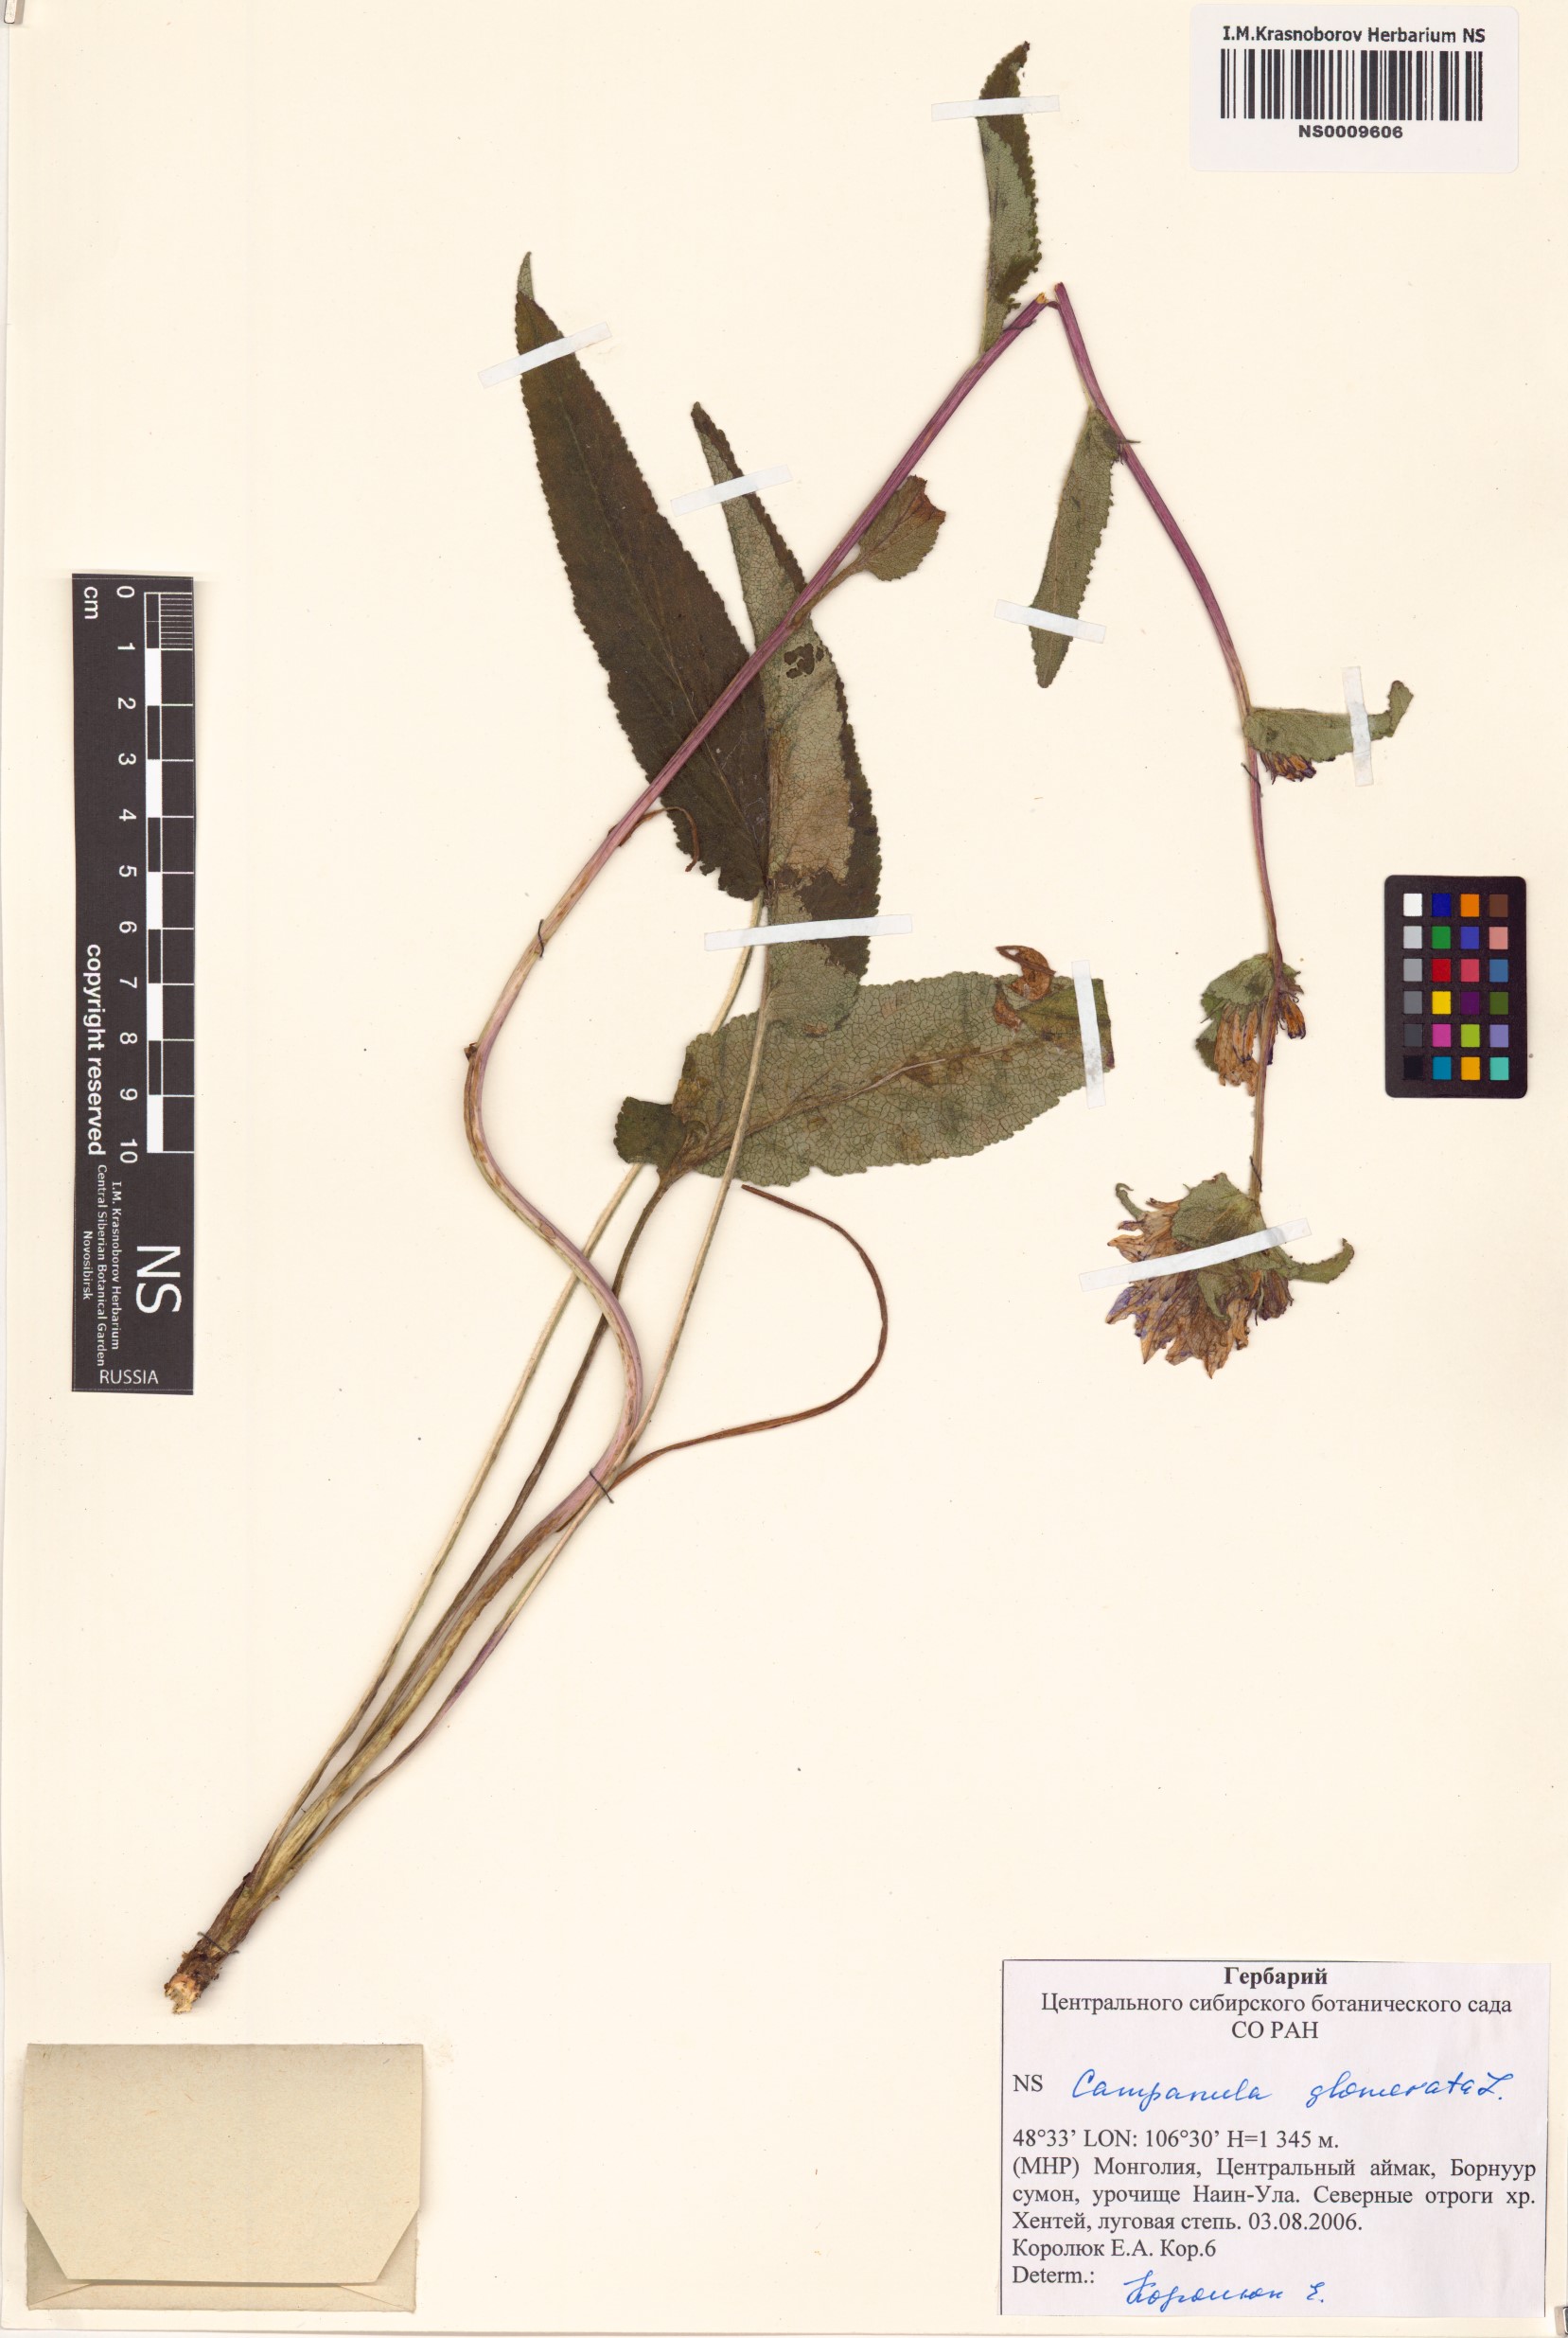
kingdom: Plantae
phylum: Tracheophyta
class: Magnoliopsida
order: Asterales
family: Campanulaceae
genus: Campanula
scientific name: Campanula glomerata
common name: Clustered bellflower
